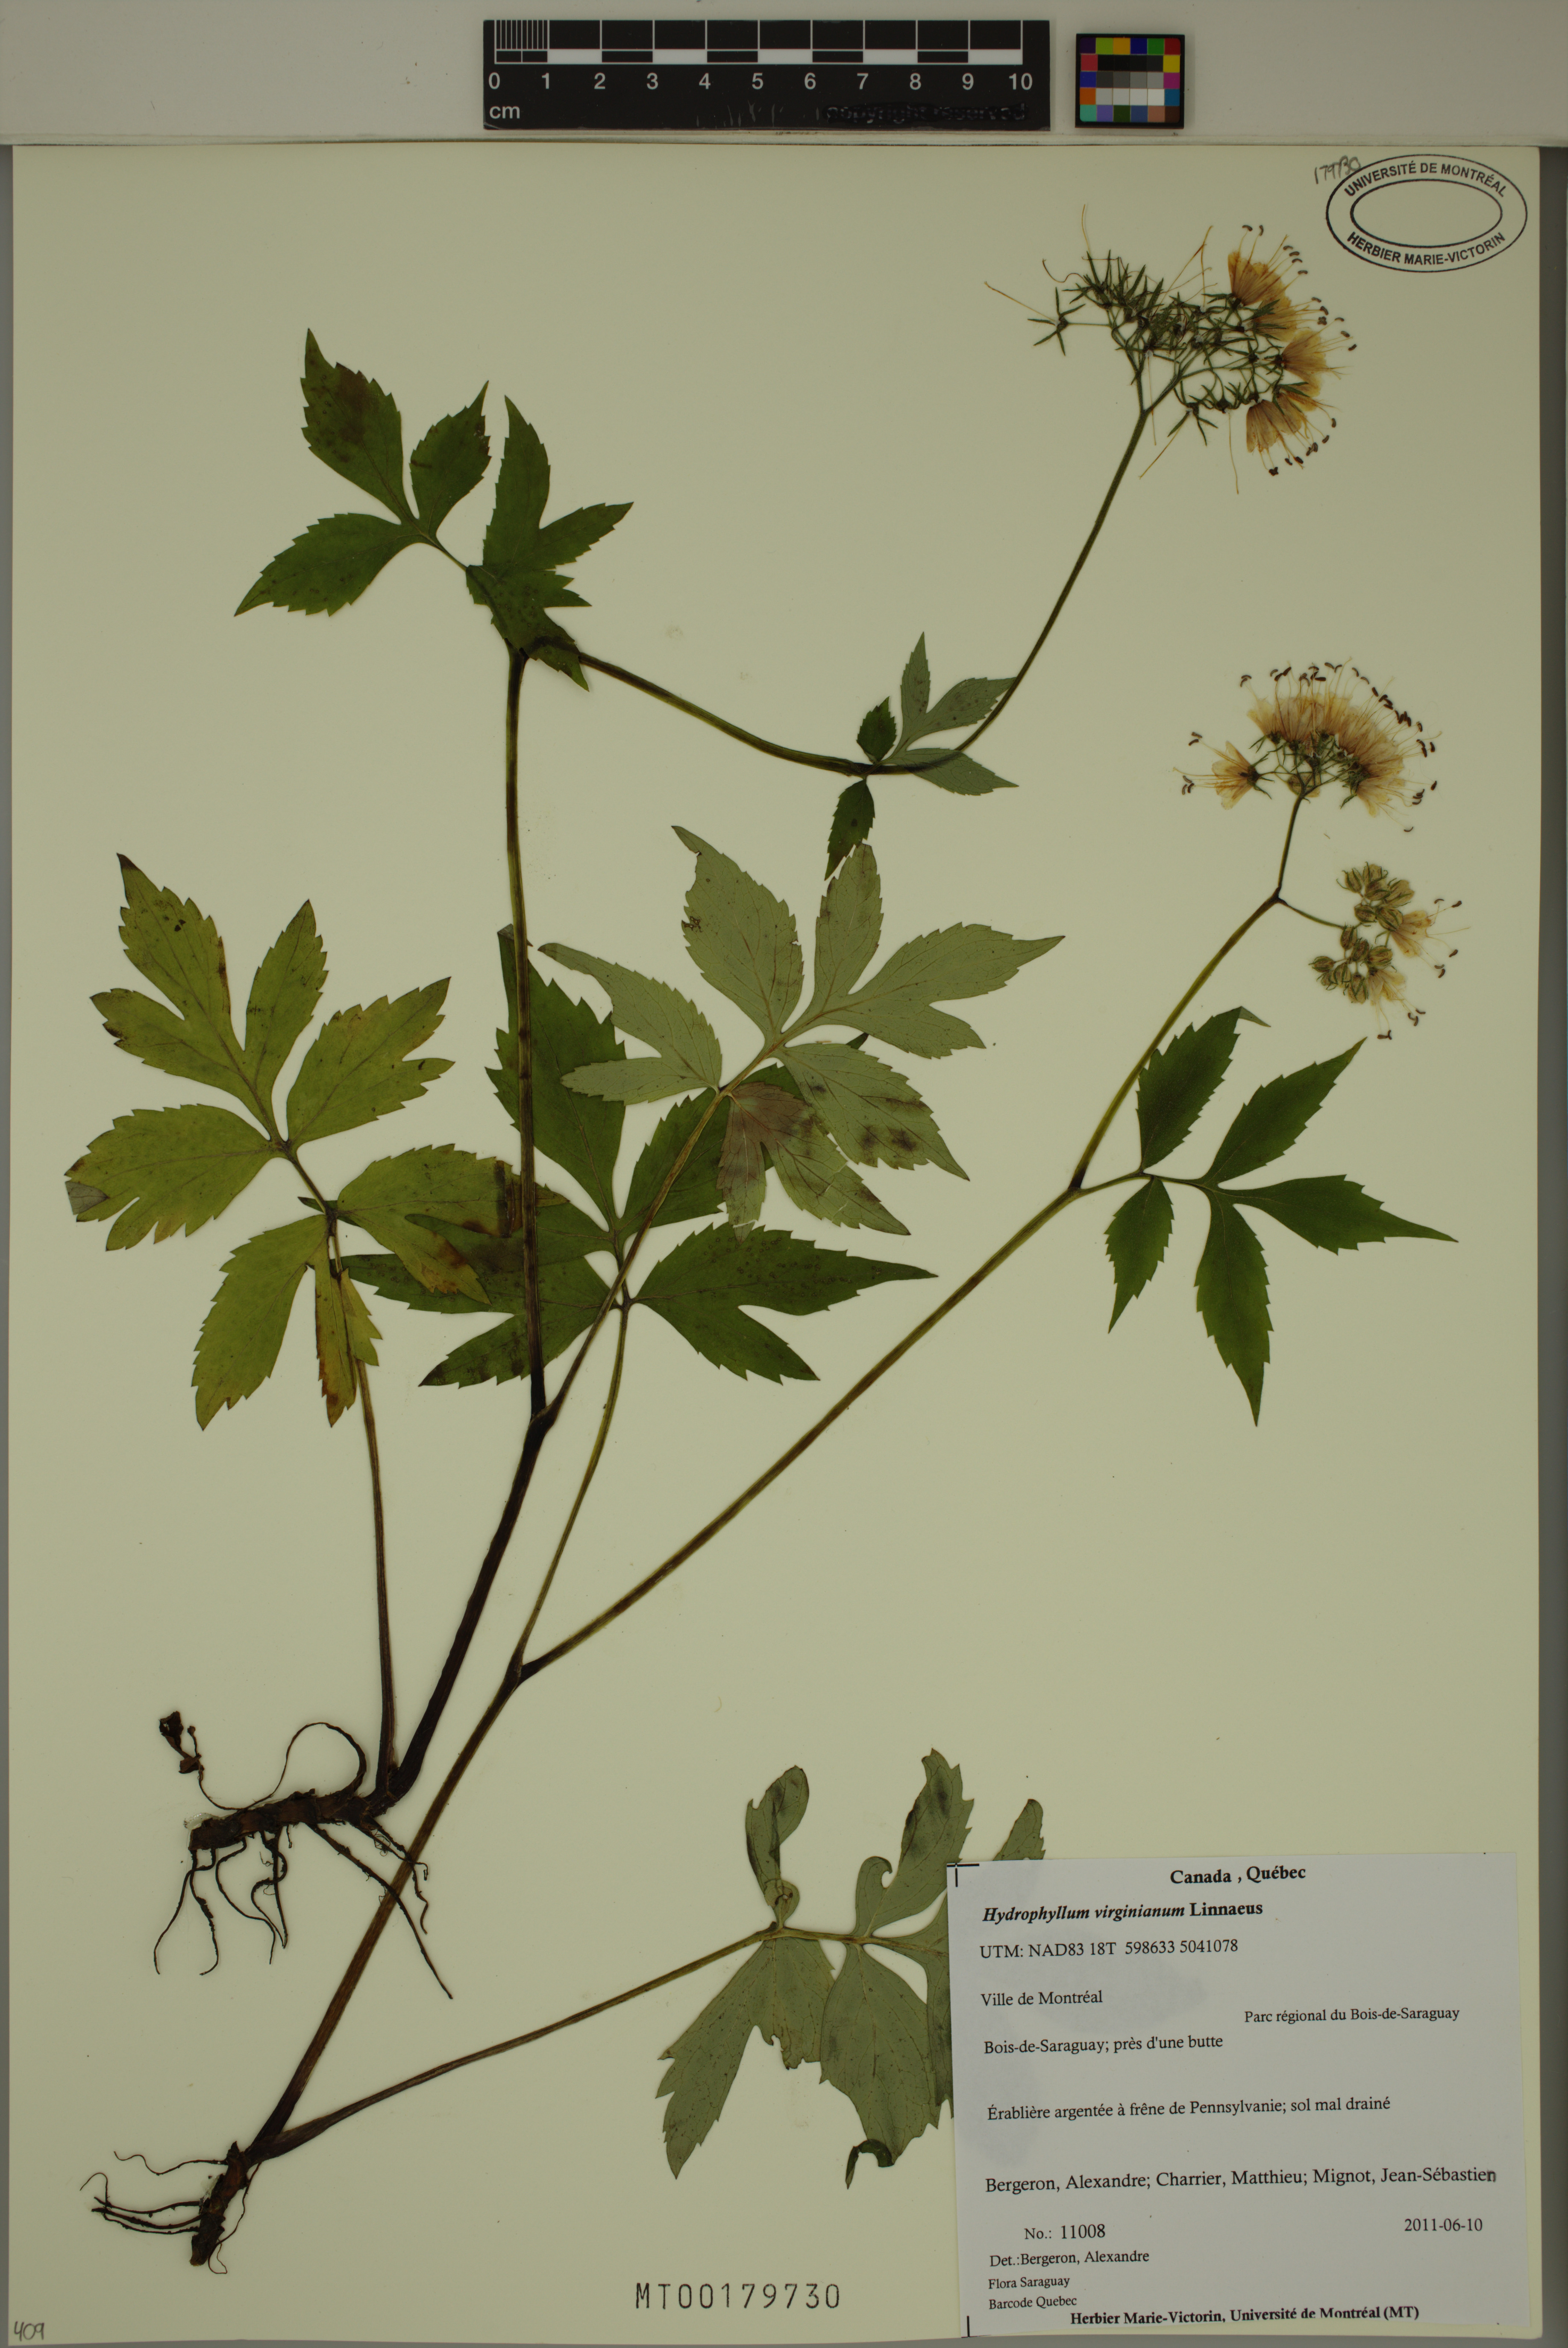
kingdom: Plantae
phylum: Tracheophyta
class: Magnoliopsida
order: Boraginales
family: Hydrophyllaceae
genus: Hydrophyllum
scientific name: Hydrophyllum virginianum
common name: Virginia waterleaf
